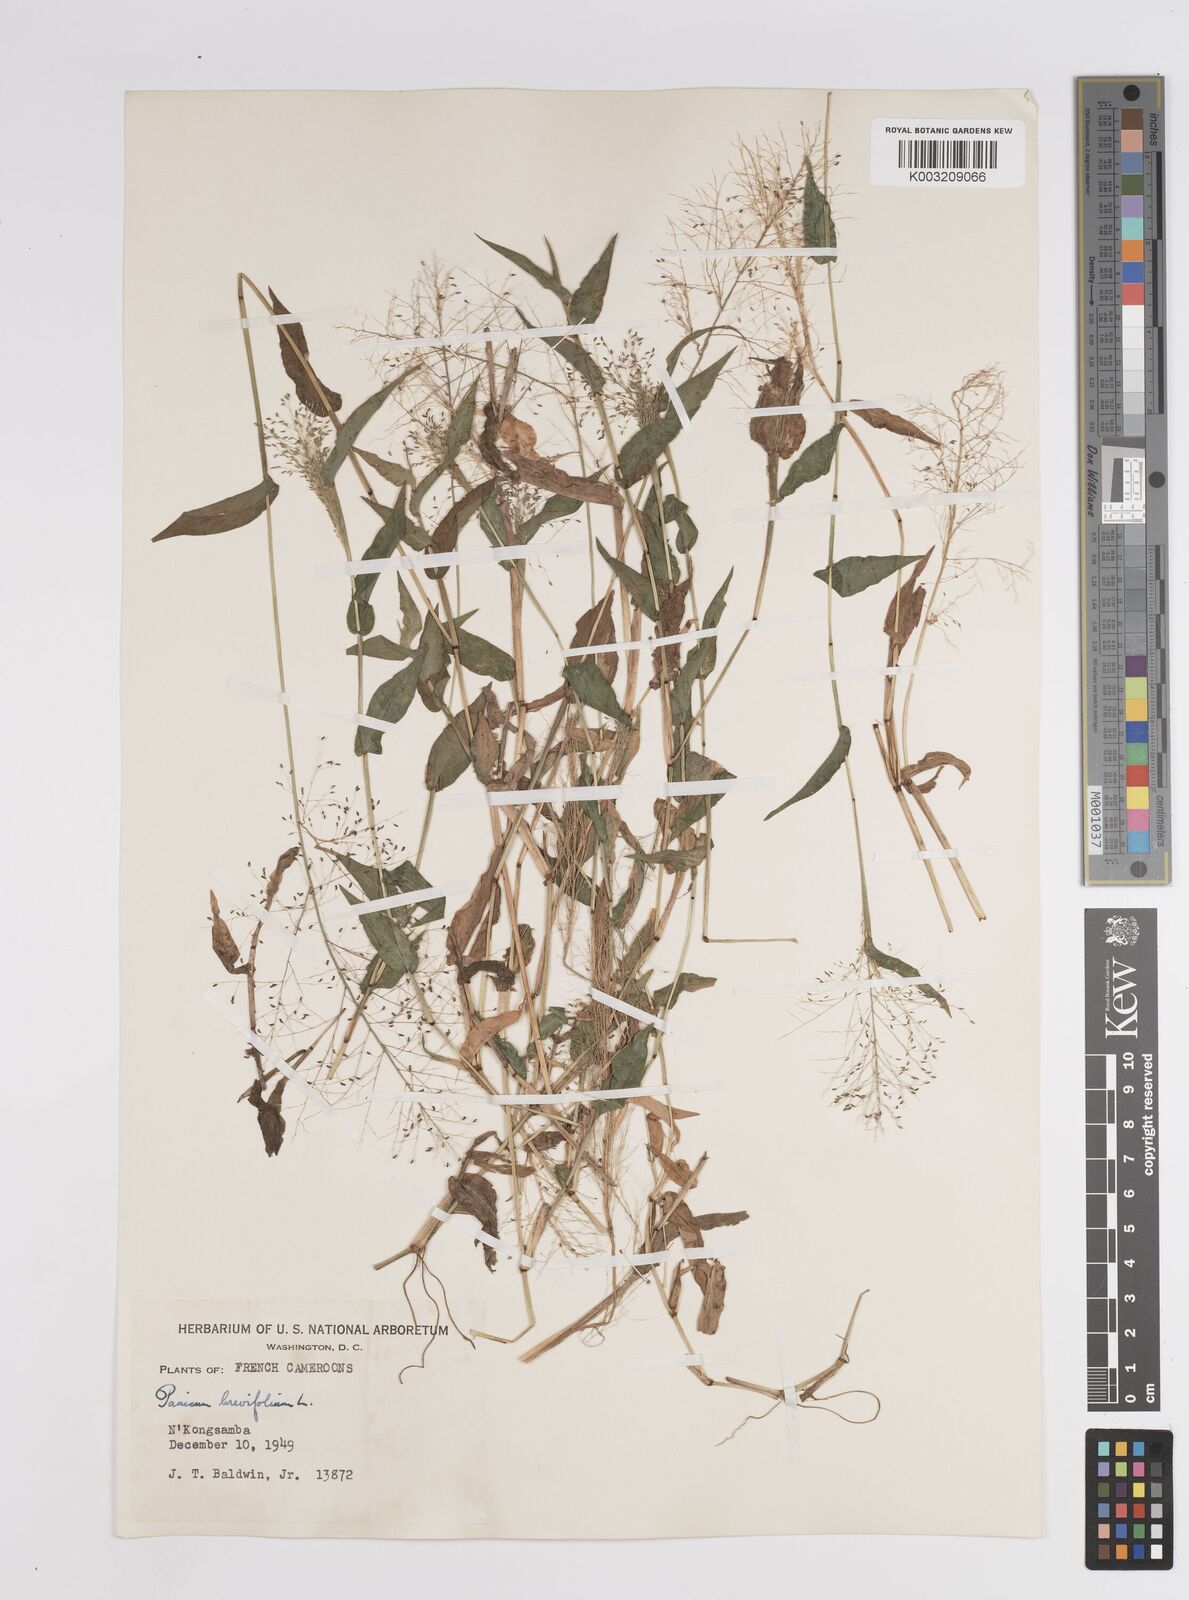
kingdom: Plantae
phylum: Tracheophyta
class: Liliopsida
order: Poales
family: Poaceae
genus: Panicum
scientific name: Panicum brevifolium
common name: Shortleaf panic grass
